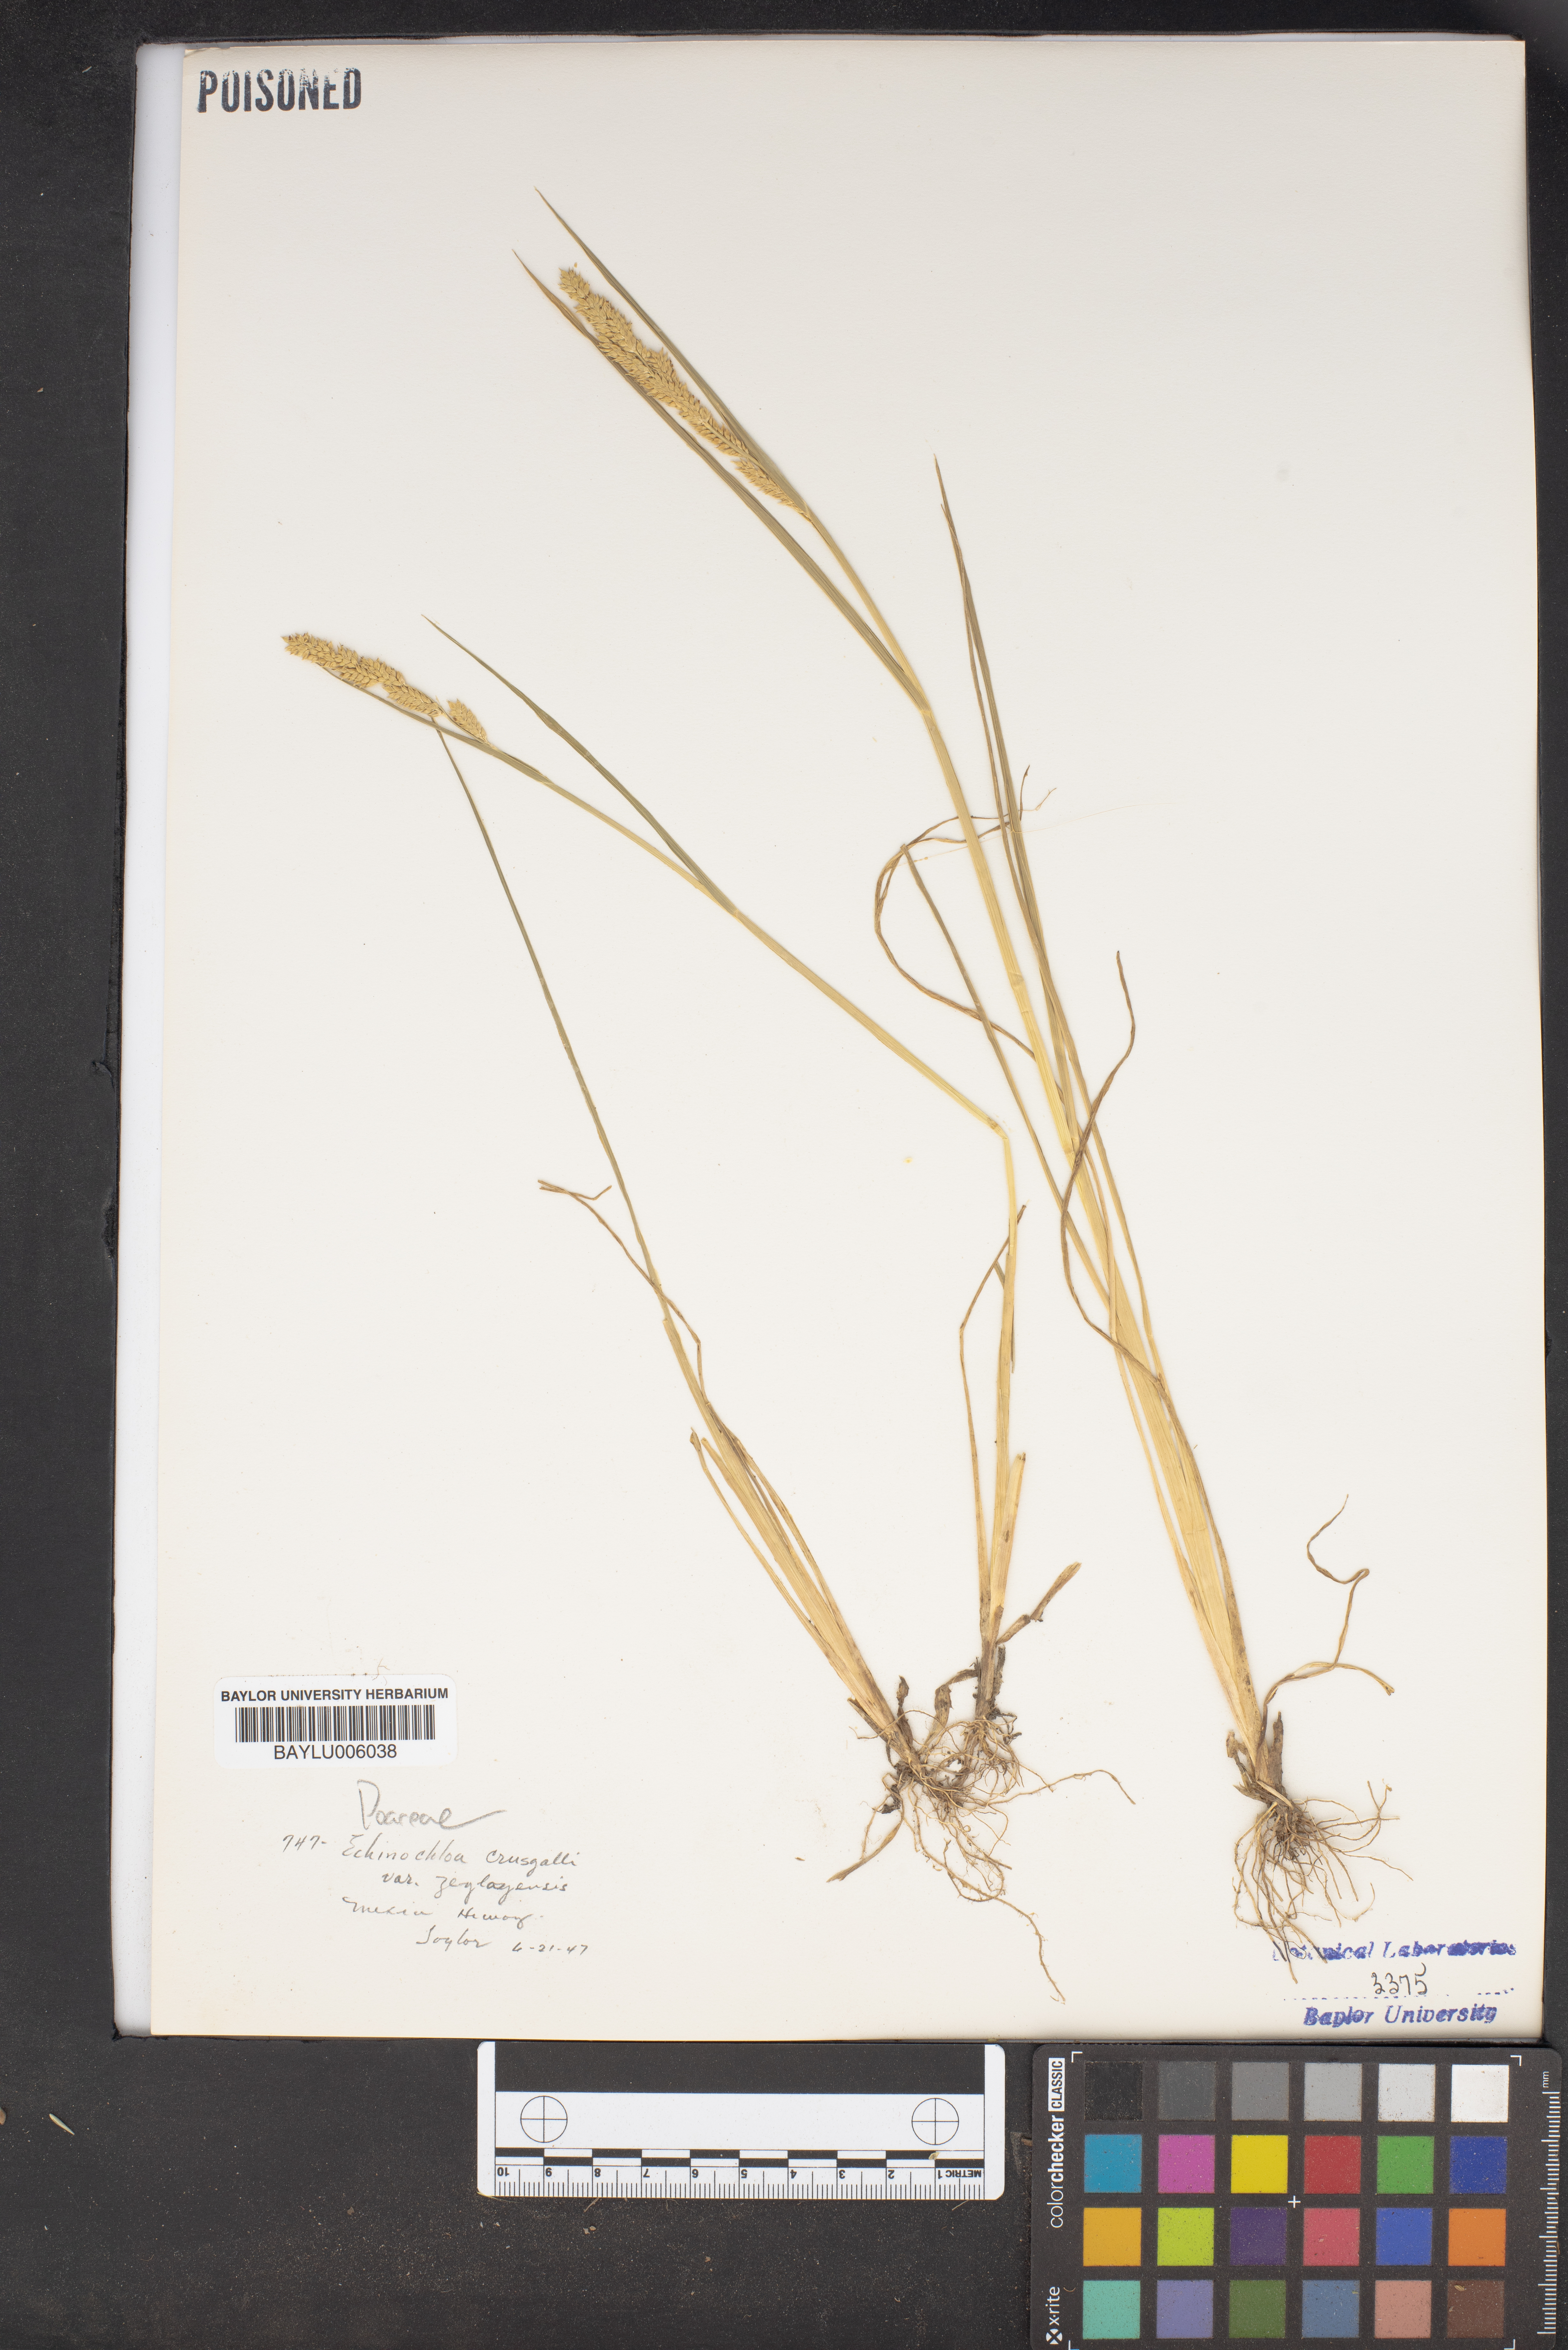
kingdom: Plantae
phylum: Tracheophyta
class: Liliopsida
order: Poales
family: Poaceae
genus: Echinochloa
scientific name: Echinochloa crus-galli
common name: Cockspur
